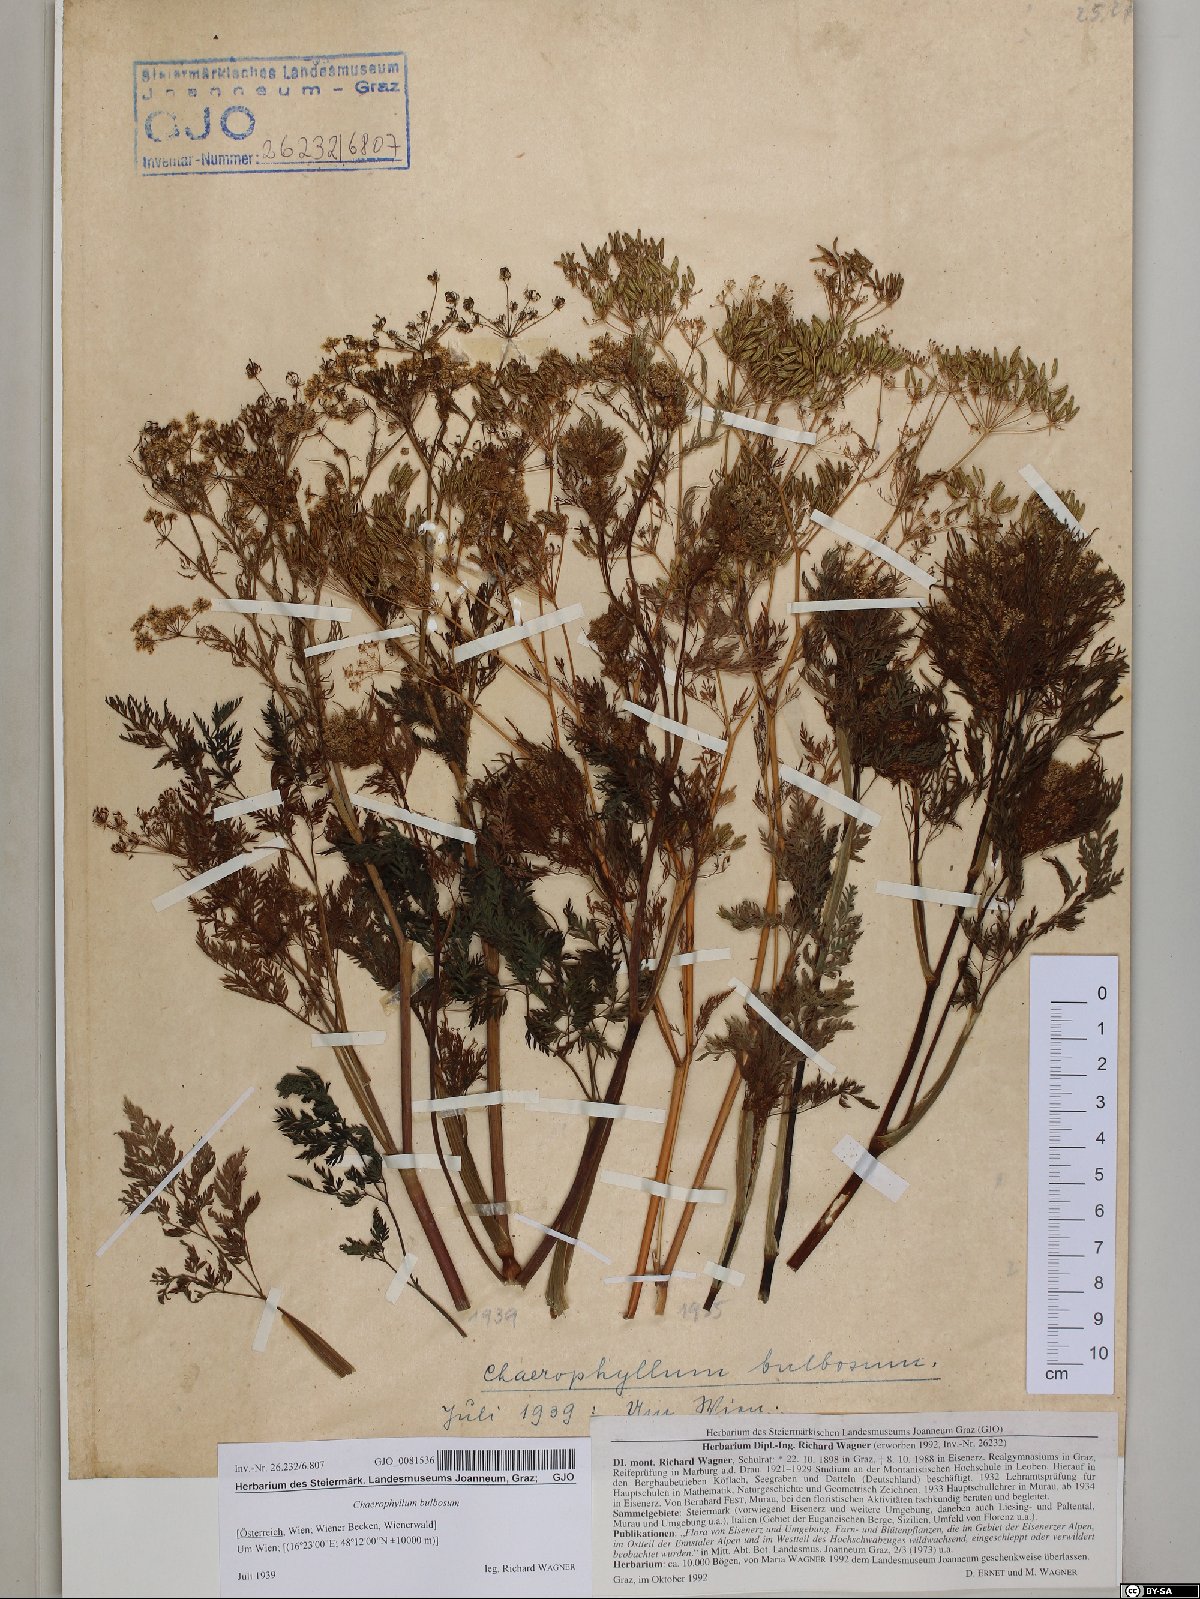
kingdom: Plantae
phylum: Tracheophyta
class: Magnoliopsida
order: Apiales
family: Apiaceae
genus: Chaerophyllum
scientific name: Chaerophyllum bulbosum
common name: Bulbous chervil
